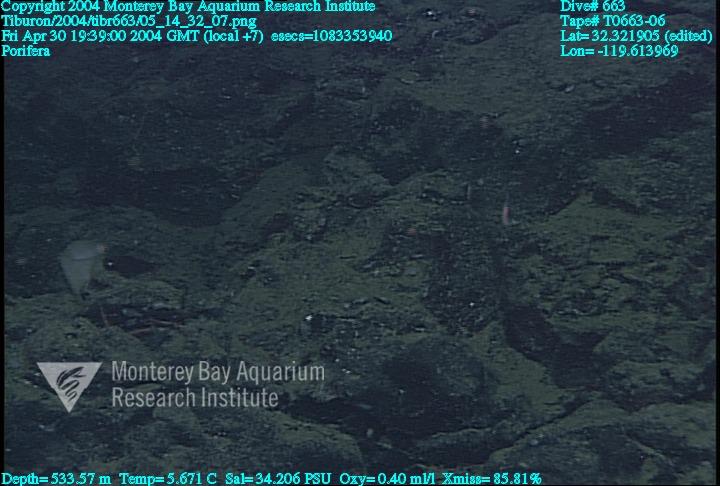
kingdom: Animalia
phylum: Porifera
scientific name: Porifera
